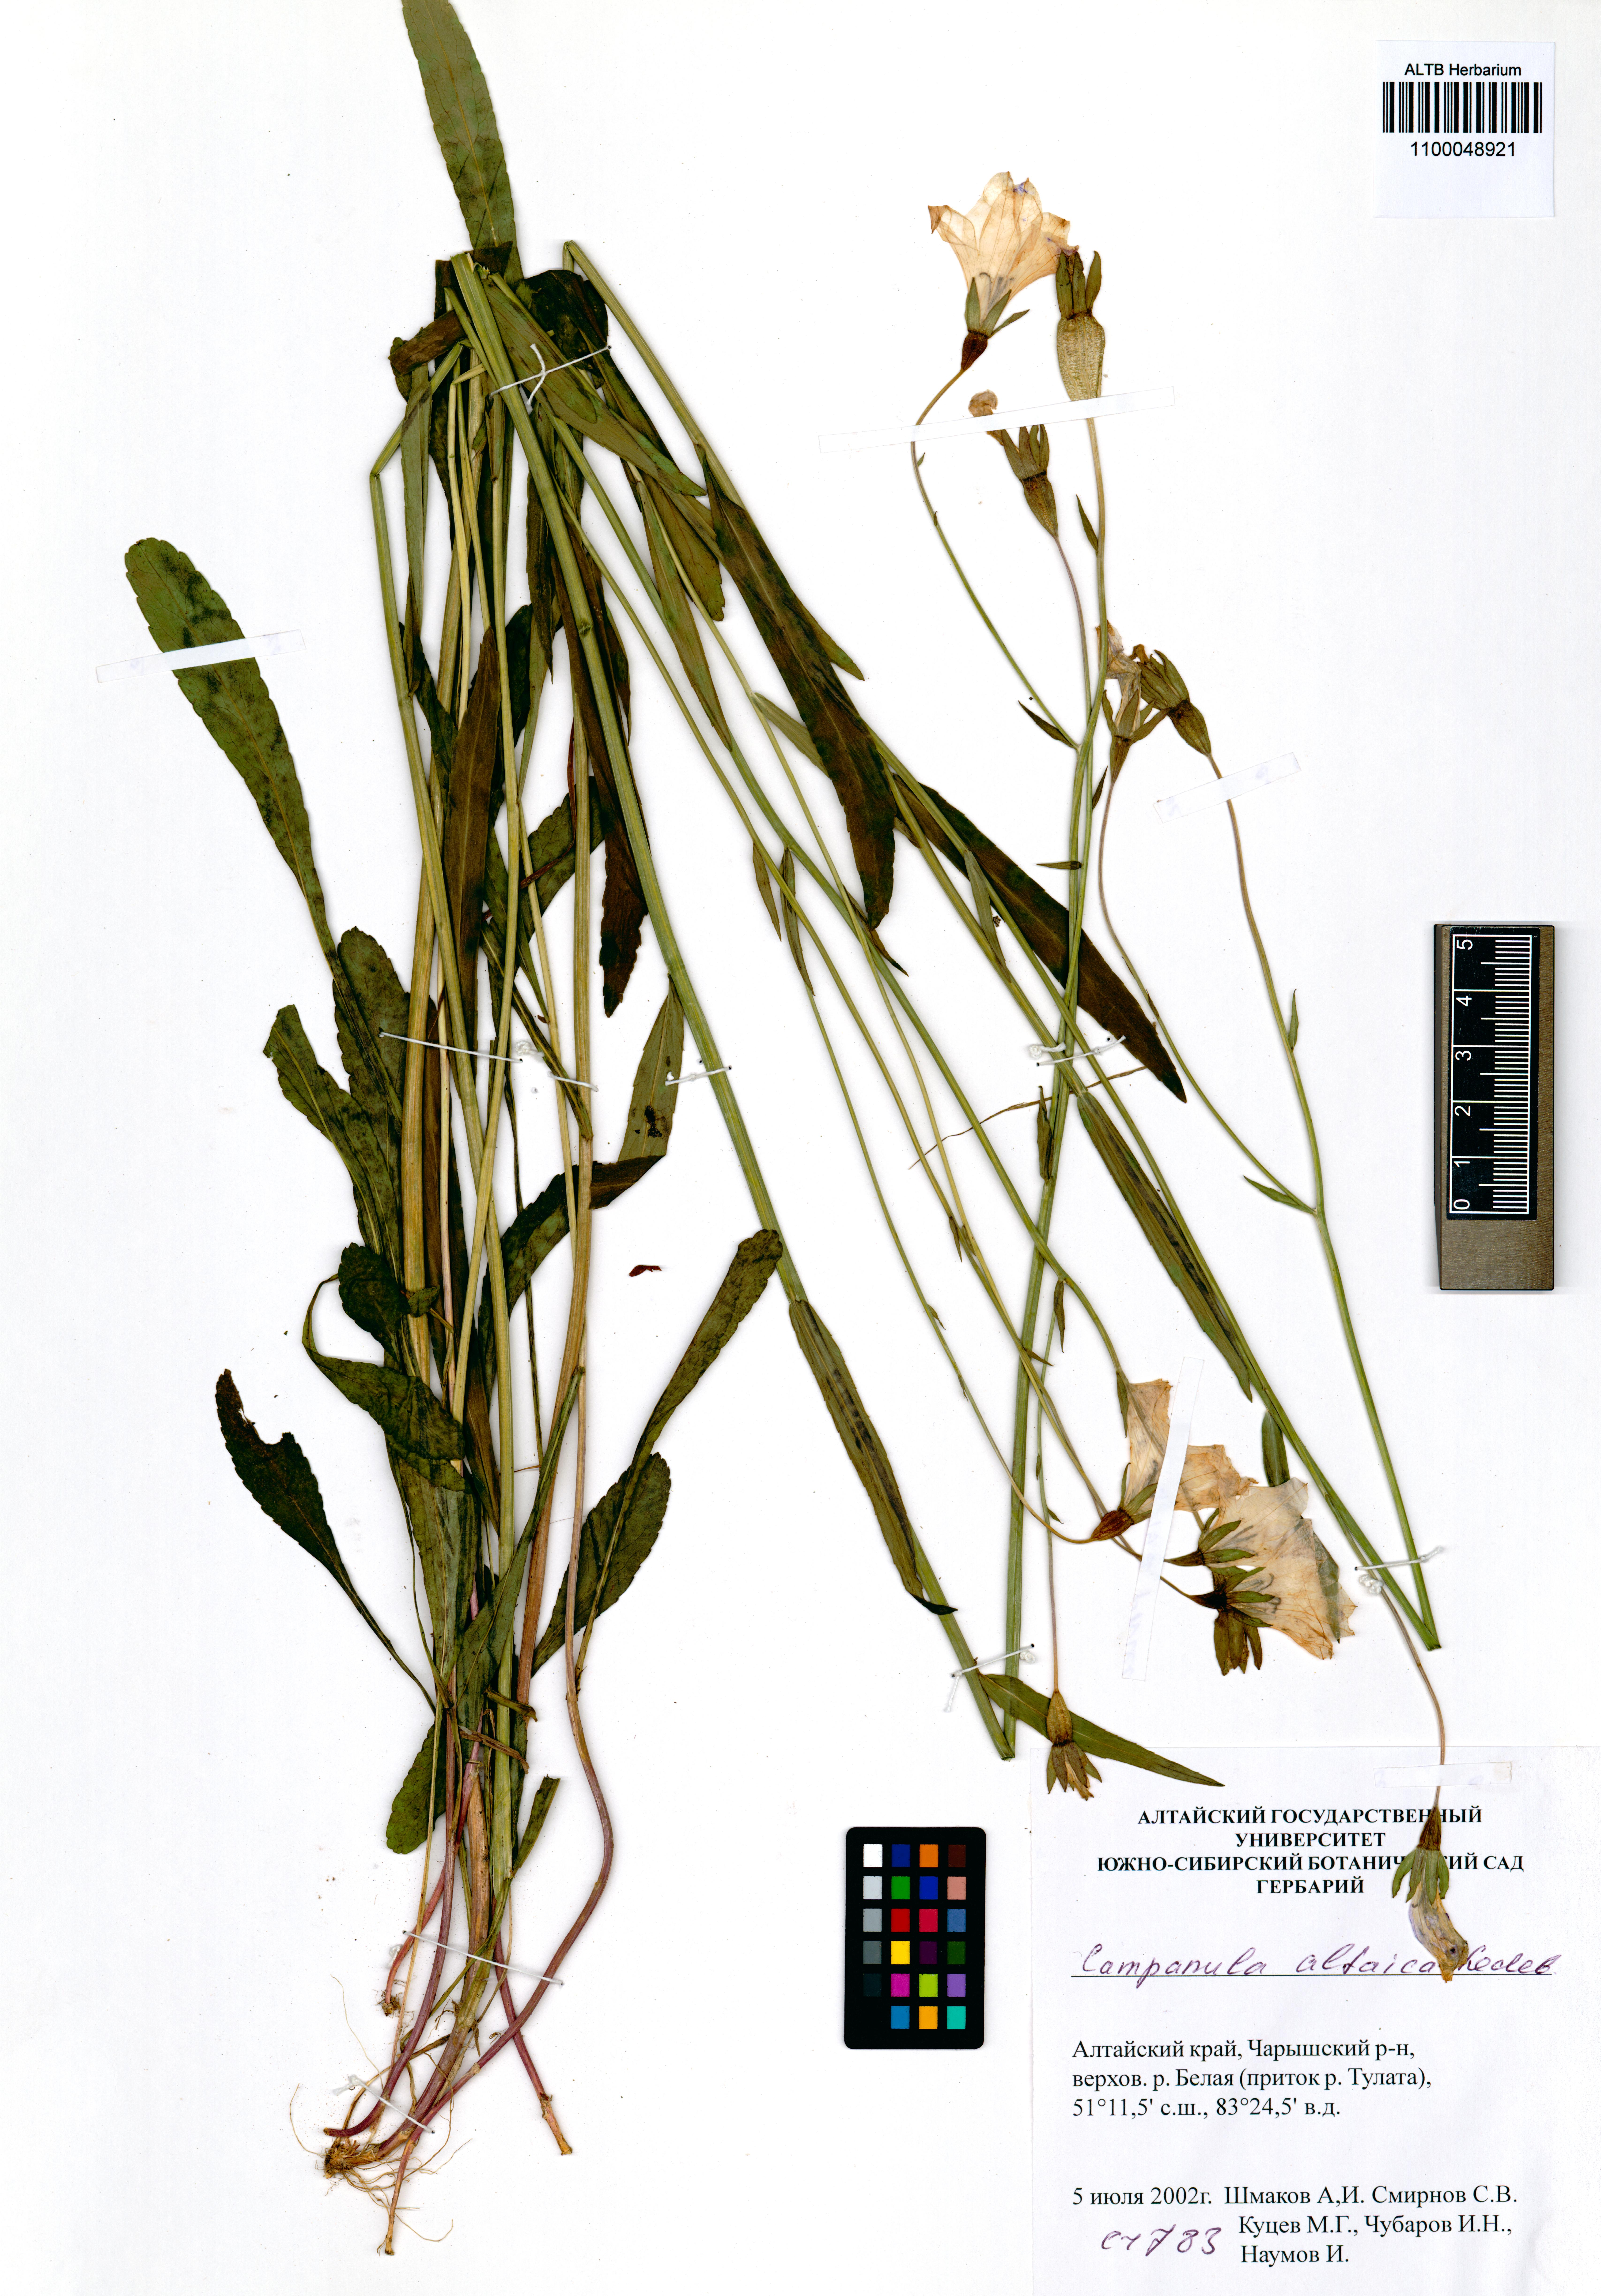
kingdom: Plantae
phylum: Tracheophyta
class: Magnoliopsida
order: Asterales
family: Campanulaceae
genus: Campanula
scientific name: Campanula stevenii
